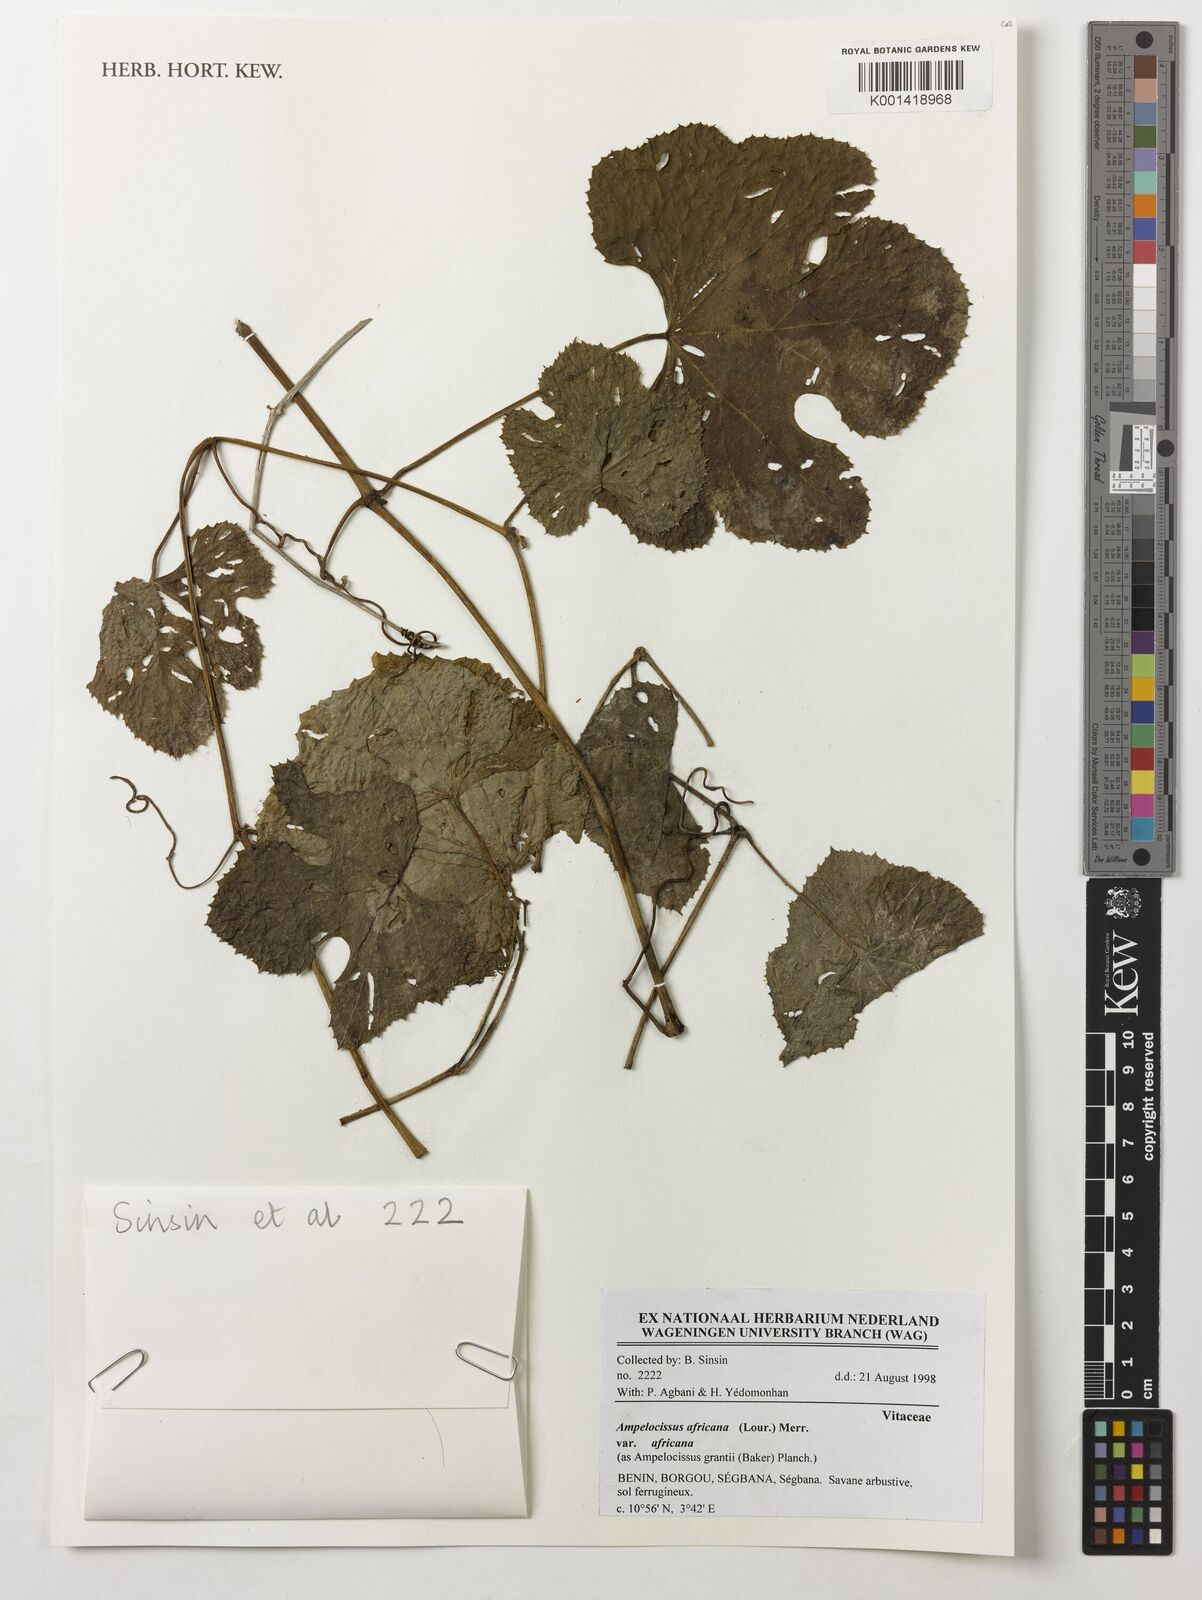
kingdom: Plantae
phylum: Tracheophyta
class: Magnoliopsida
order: Vitales
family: Vitaceae
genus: Ampelocissus
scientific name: Ampelocissus africana
